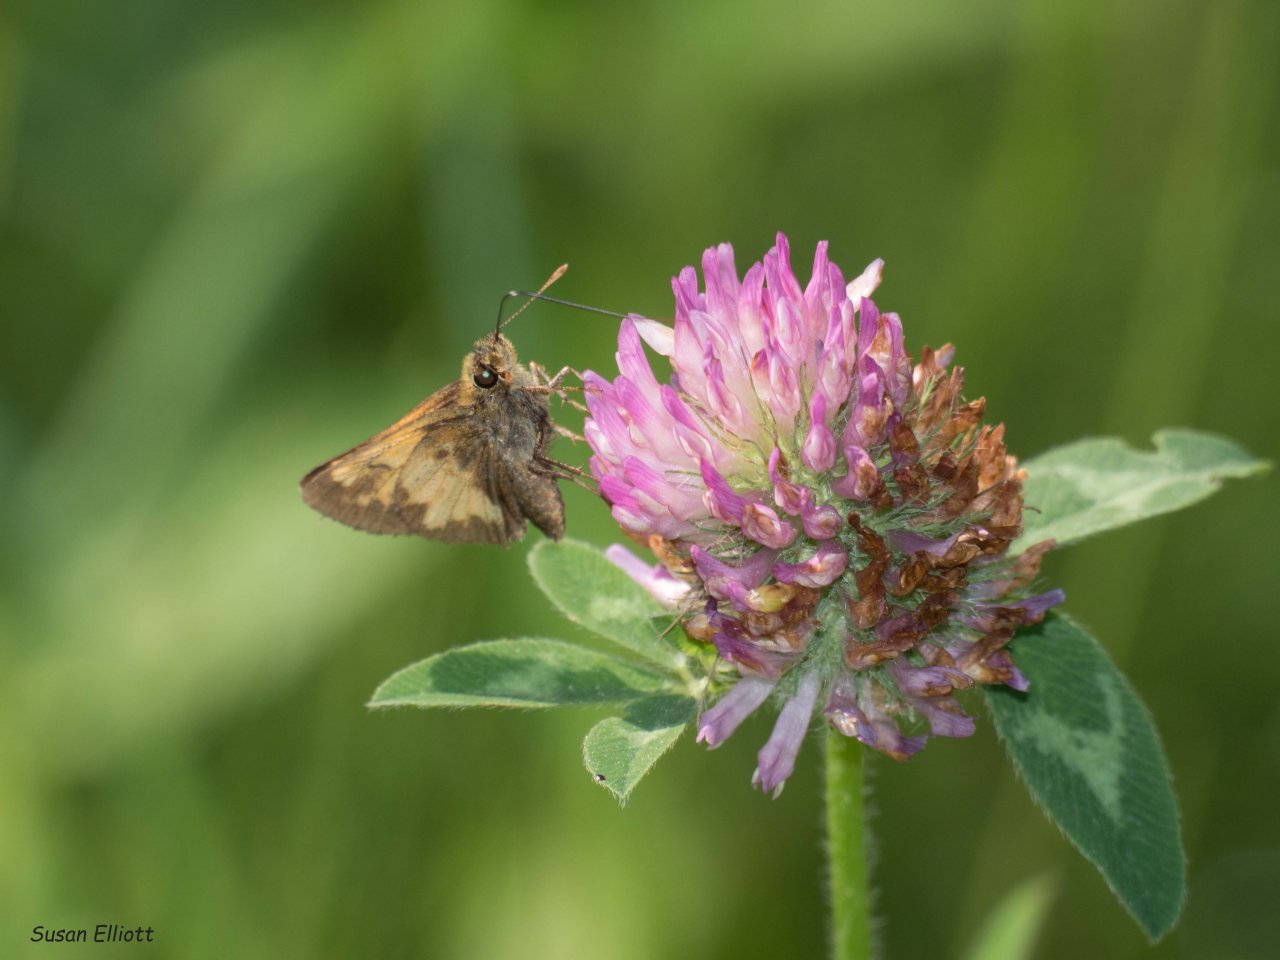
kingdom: Animalia
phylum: Arthropoda
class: Insecta
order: Lepidoptera
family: Hesperiidae
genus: Lon
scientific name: Lon hobomok
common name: Hobomok Skipper
